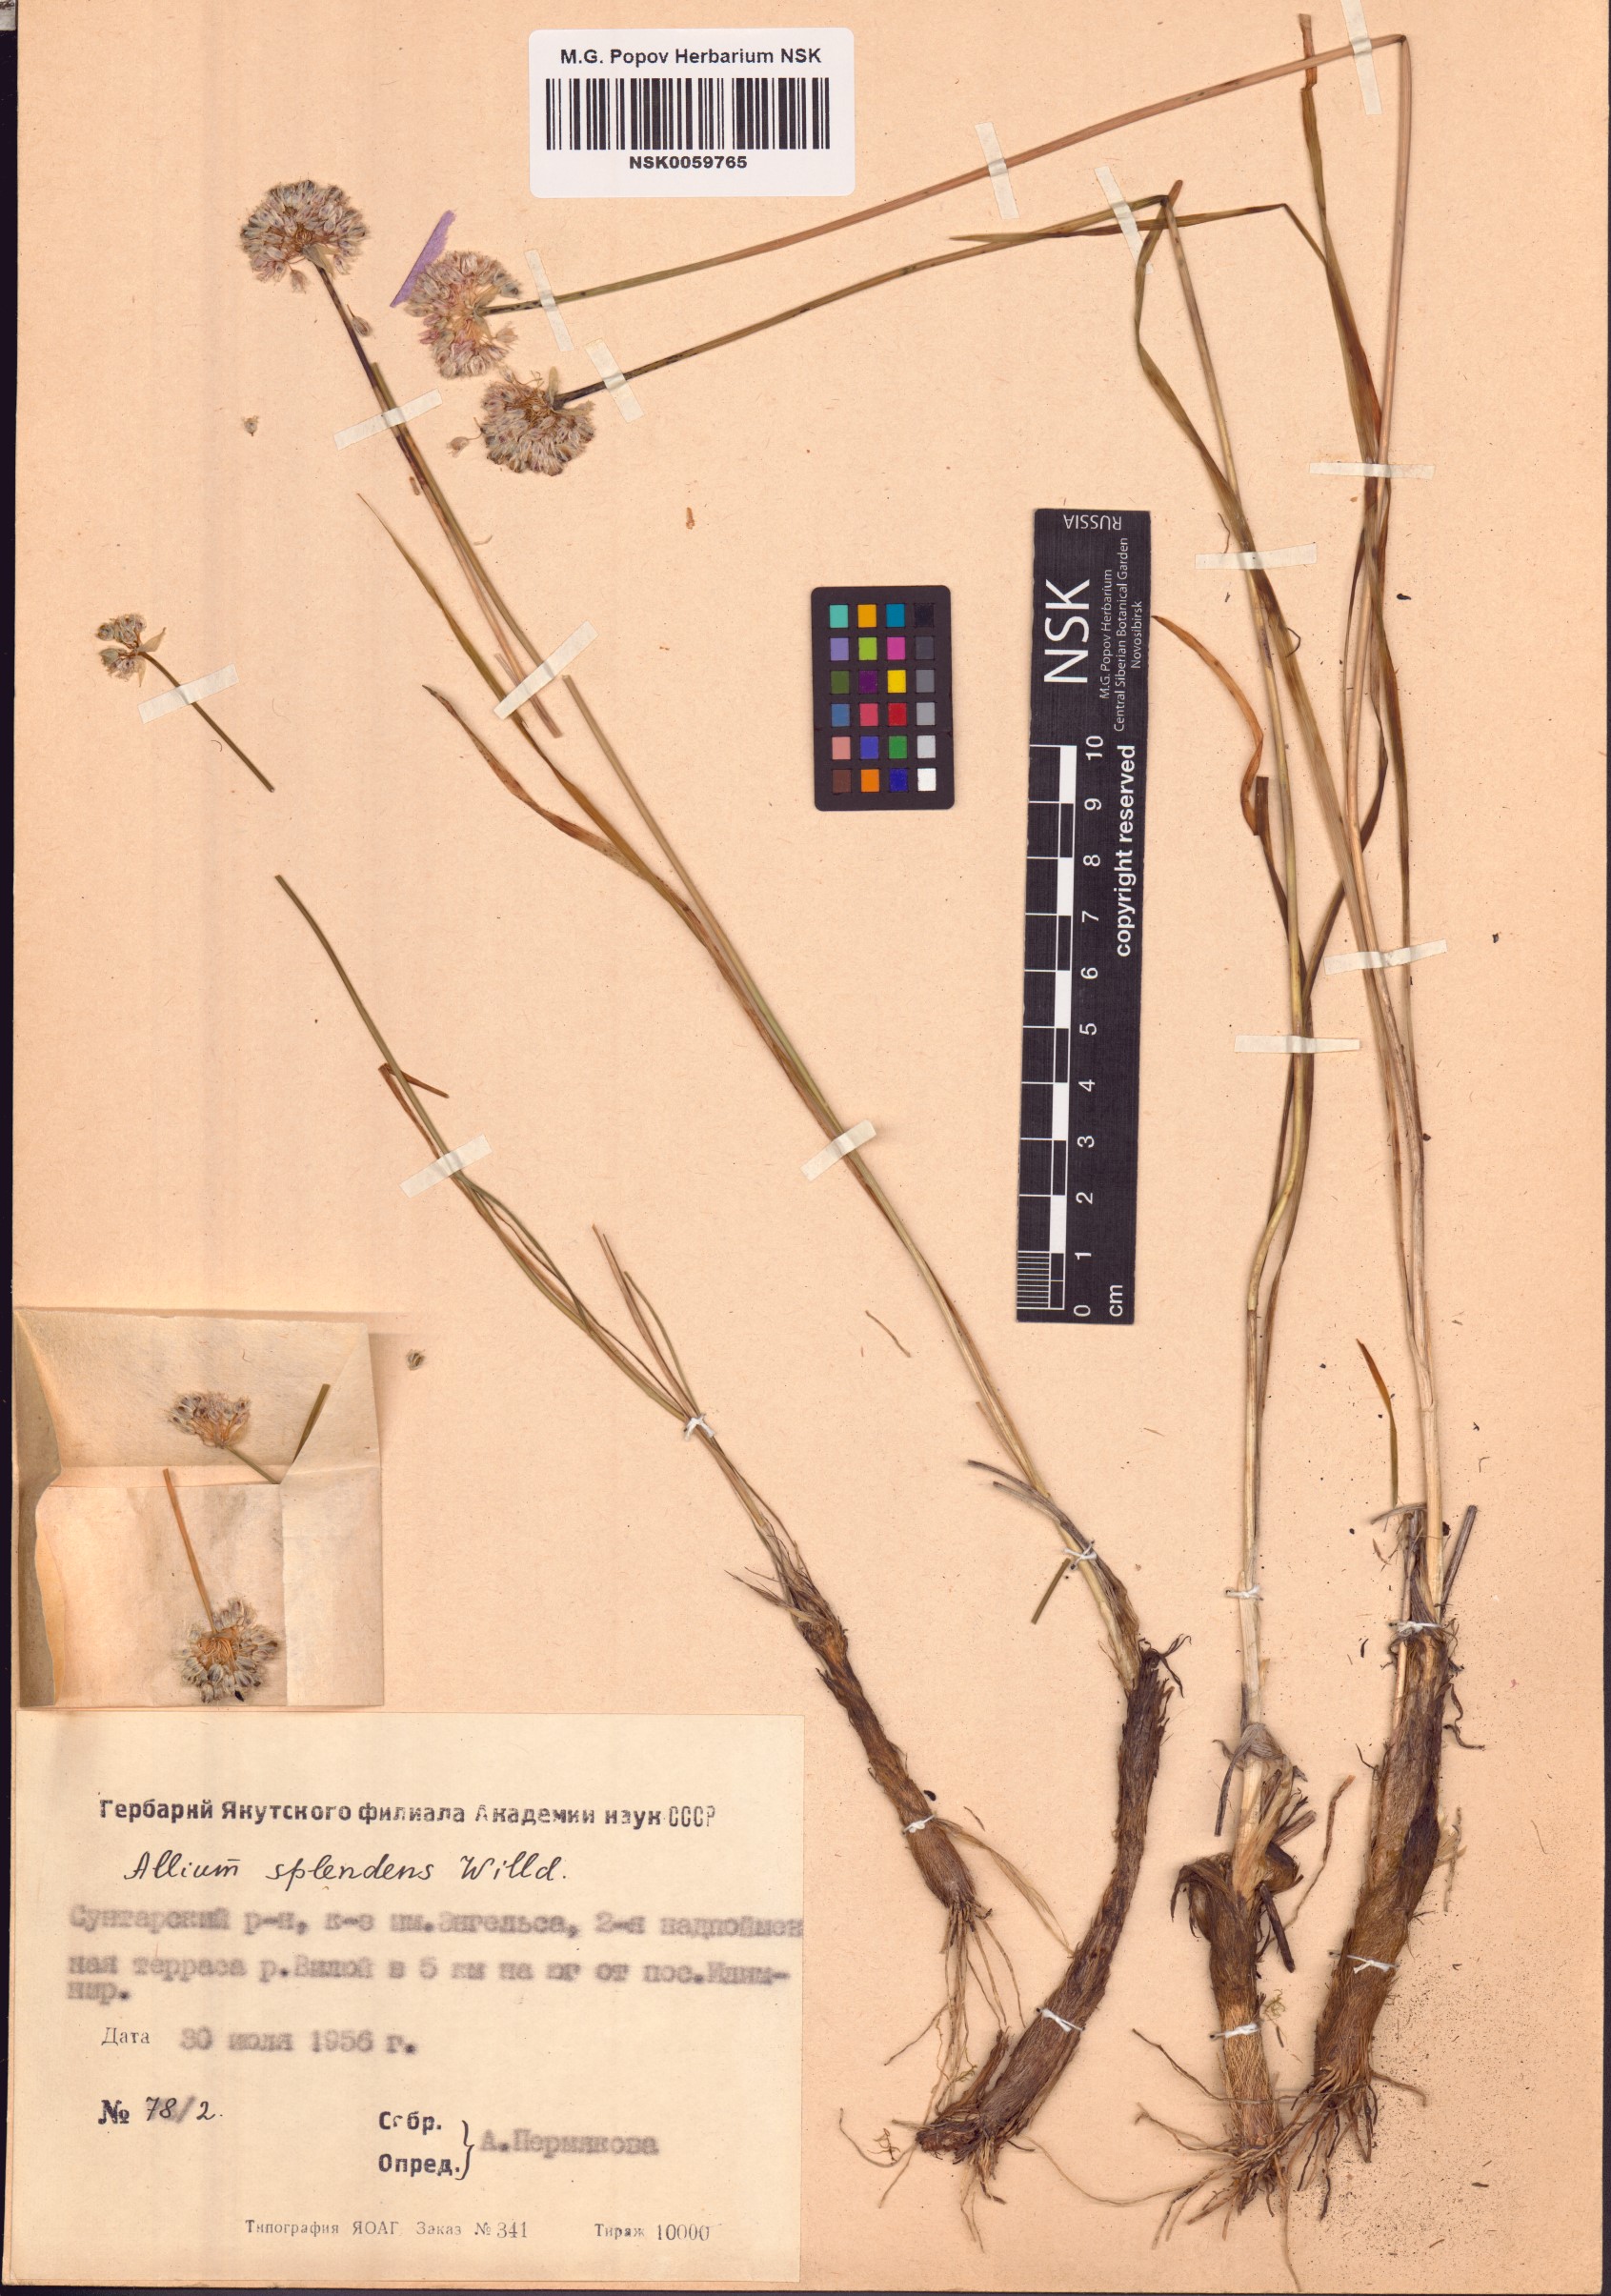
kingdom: Plantae
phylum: Tracheophyta
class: Liliopsida
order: Asparagales
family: Amaryllidaceae
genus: Allium
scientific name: Allium splendens
